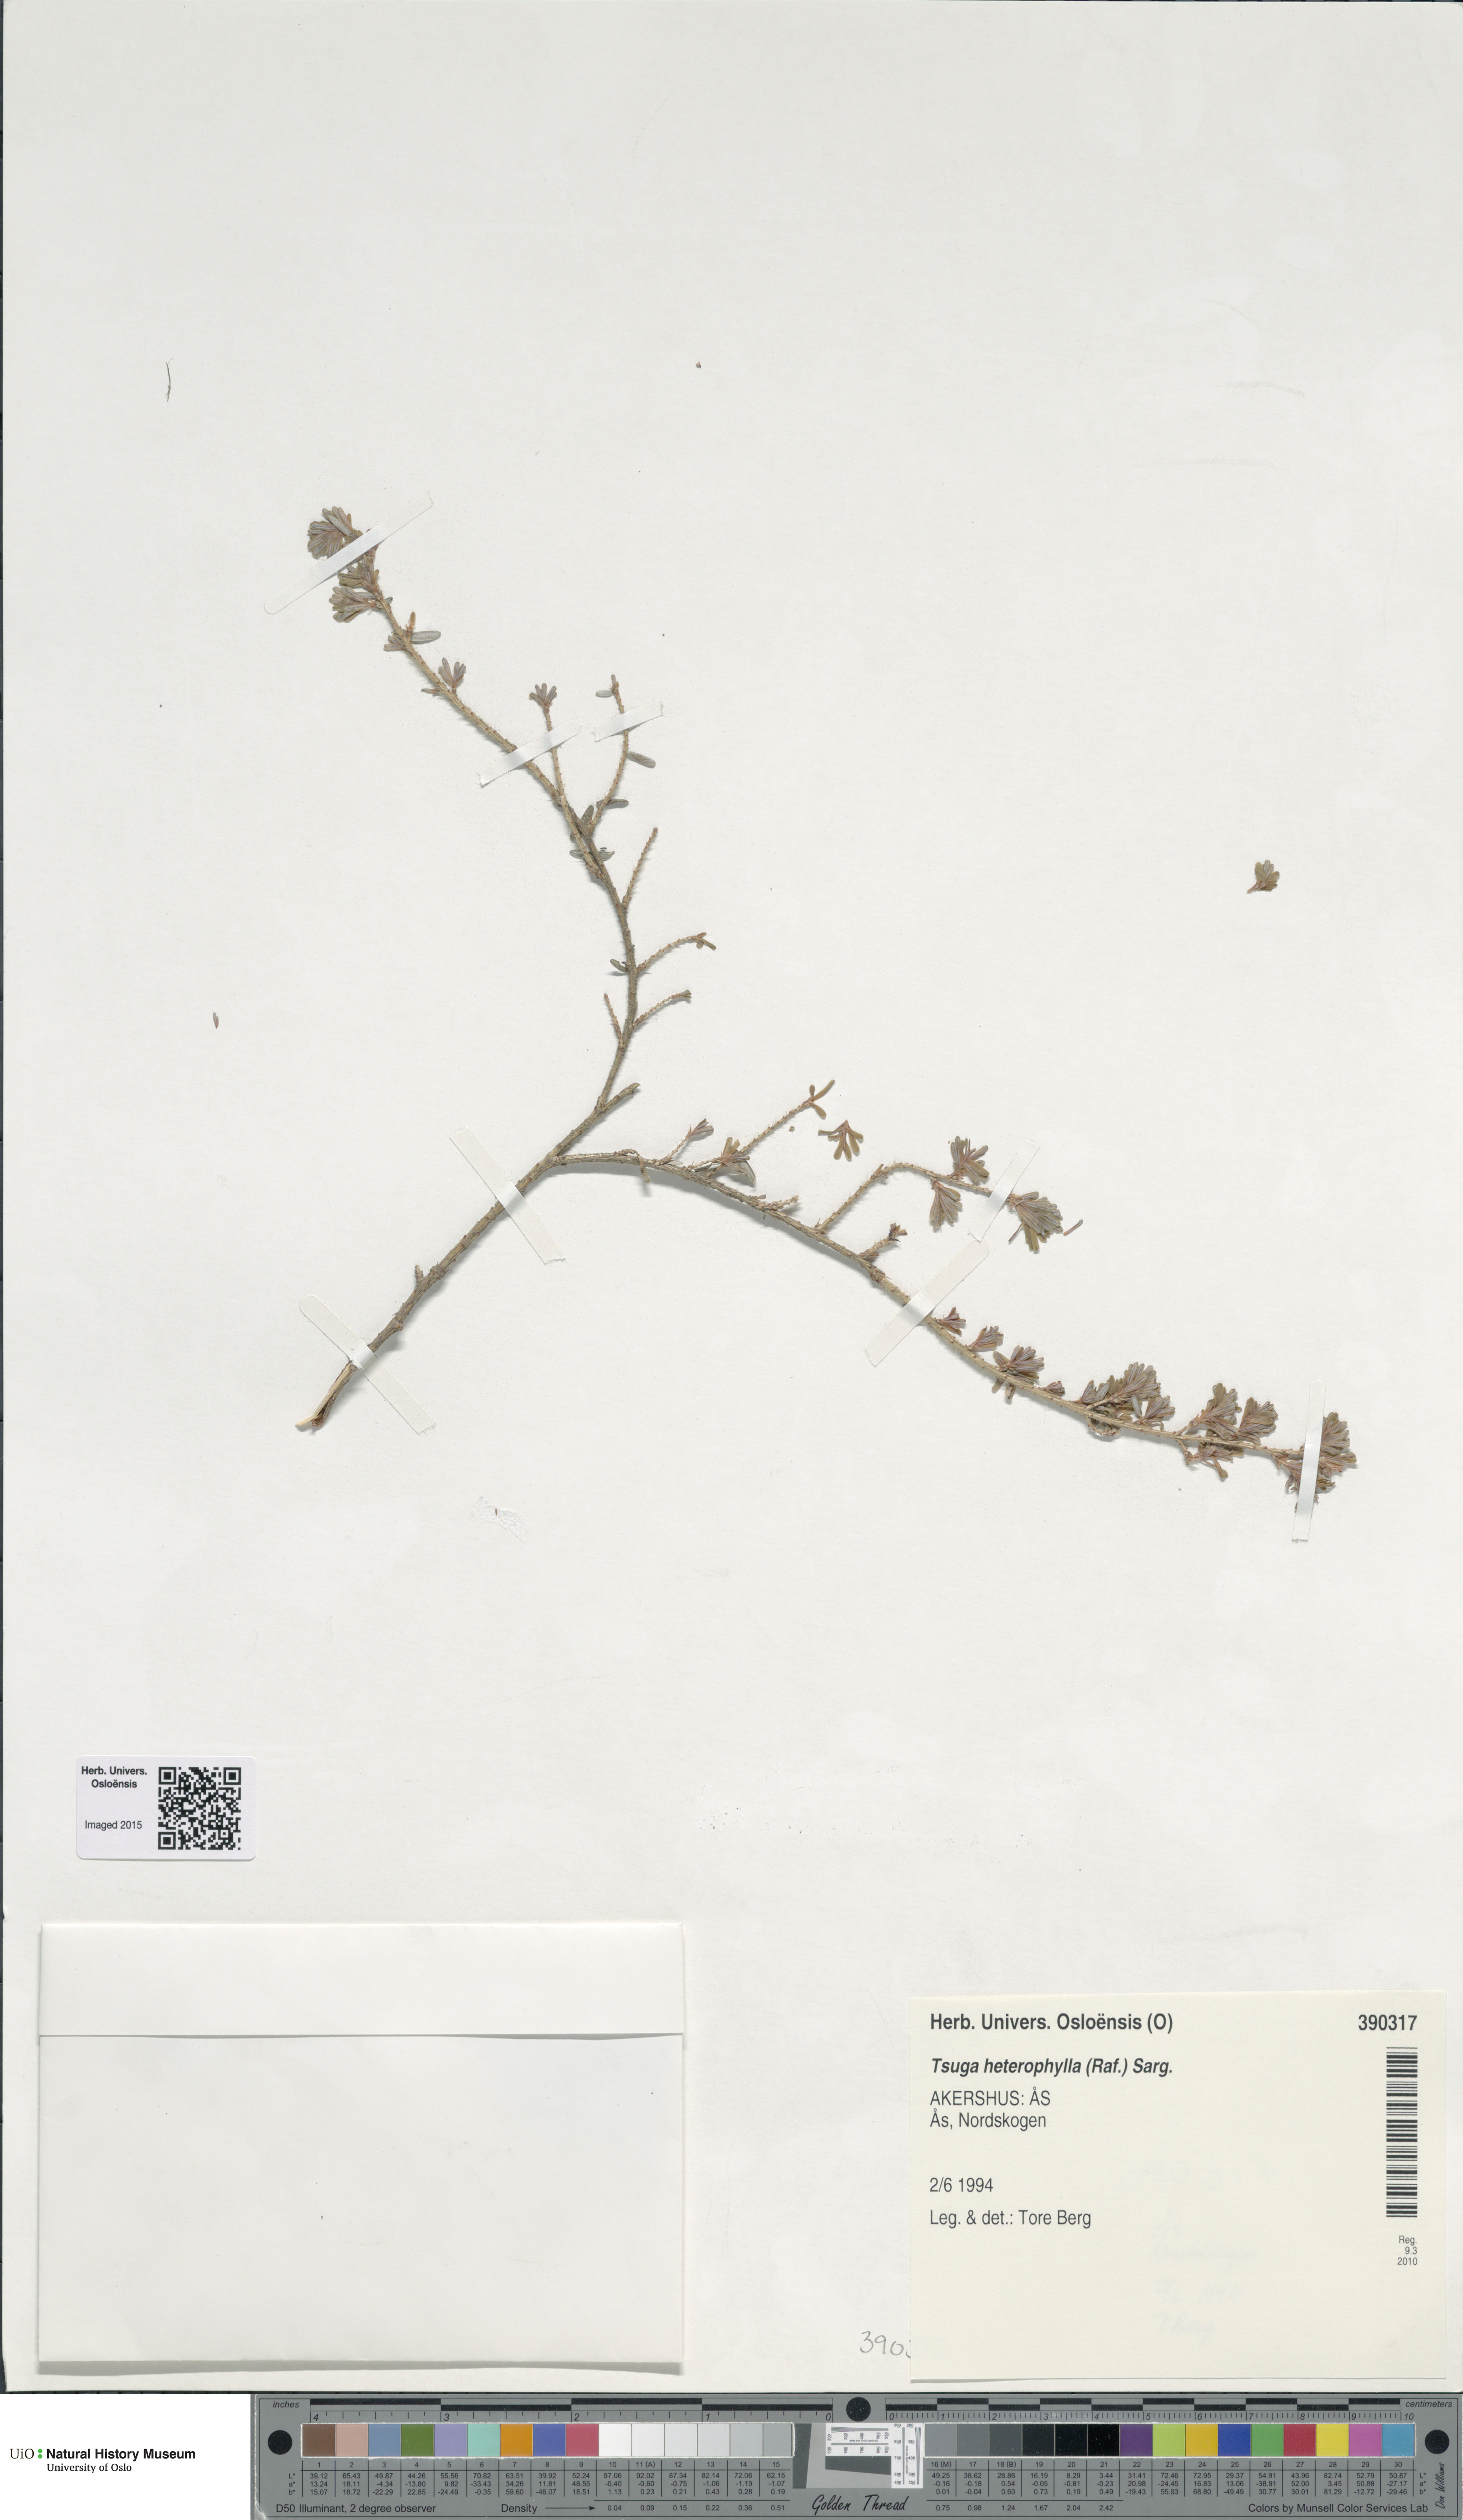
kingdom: Plantae
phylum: Tracheophyta
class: Pinopsida
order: Pinales
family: Pinaceae
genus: Tsuga
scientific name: Tsuga heterophylla
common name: Western hemlock
